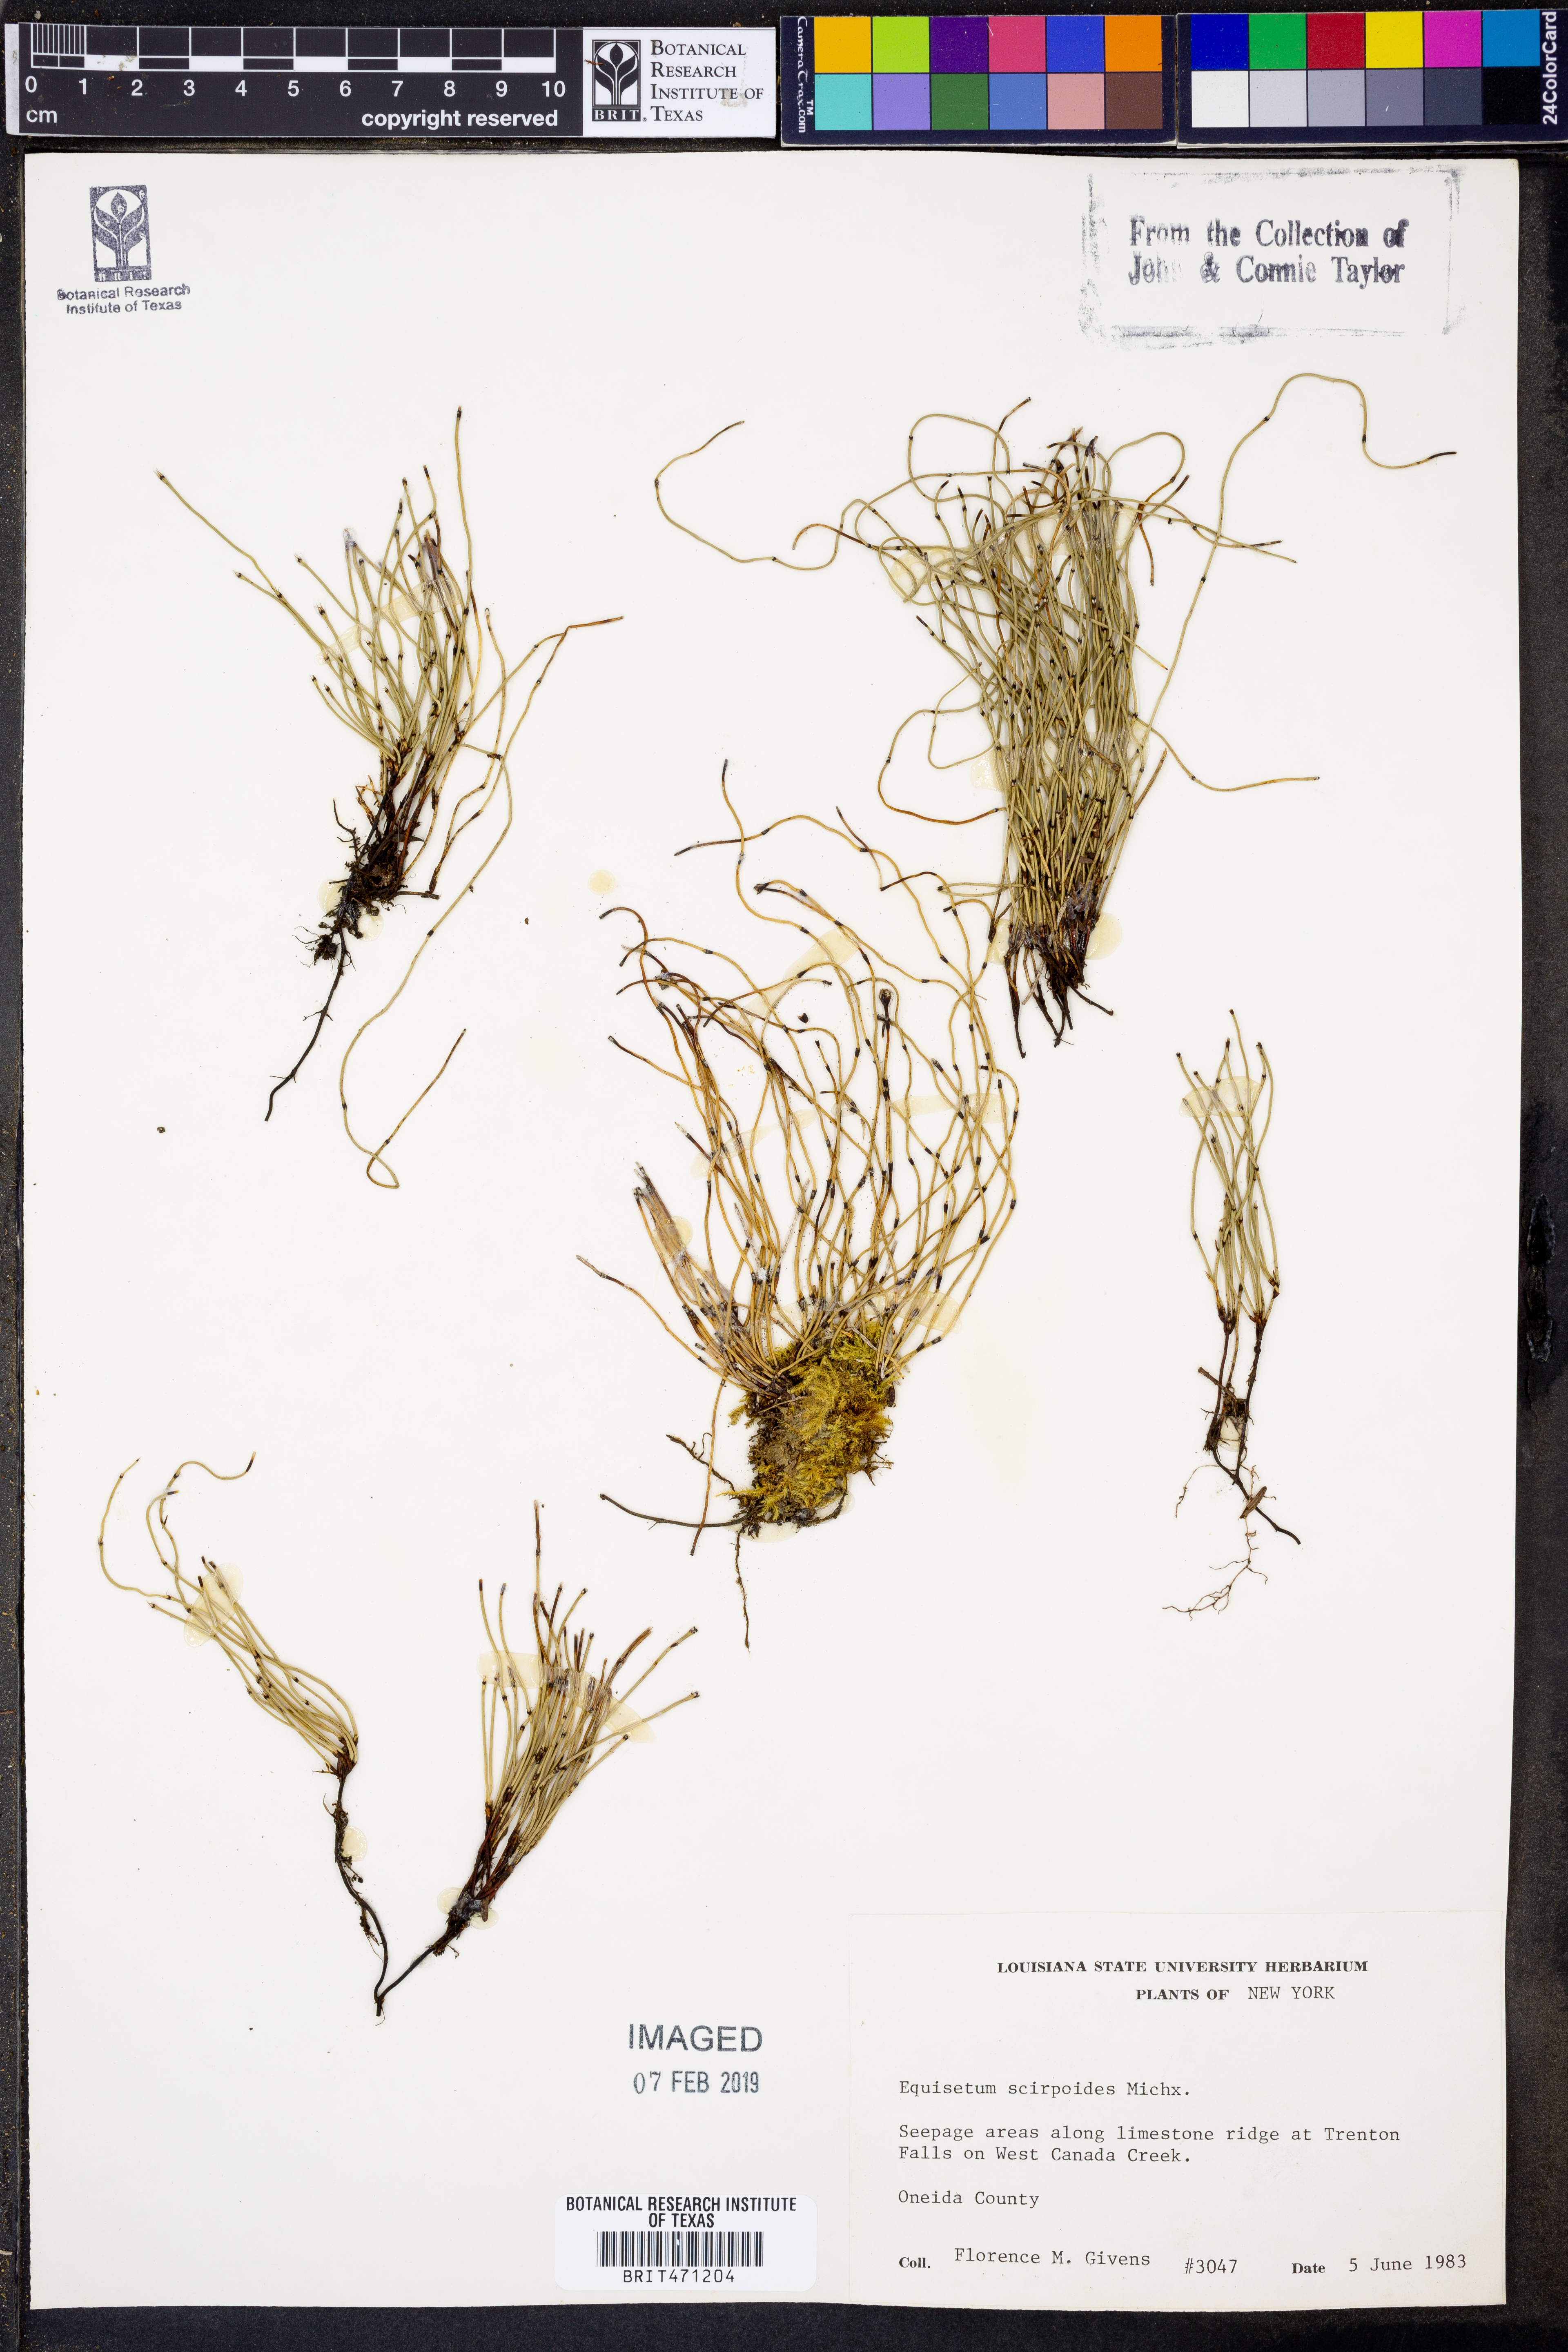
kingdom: Plantae
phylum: Tracheophyta
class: Polypodiopsida
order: Equisetales
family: Equisetaceae
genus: Equisetum
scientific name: Equisetum scirpoides
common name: Delicate horsetail
